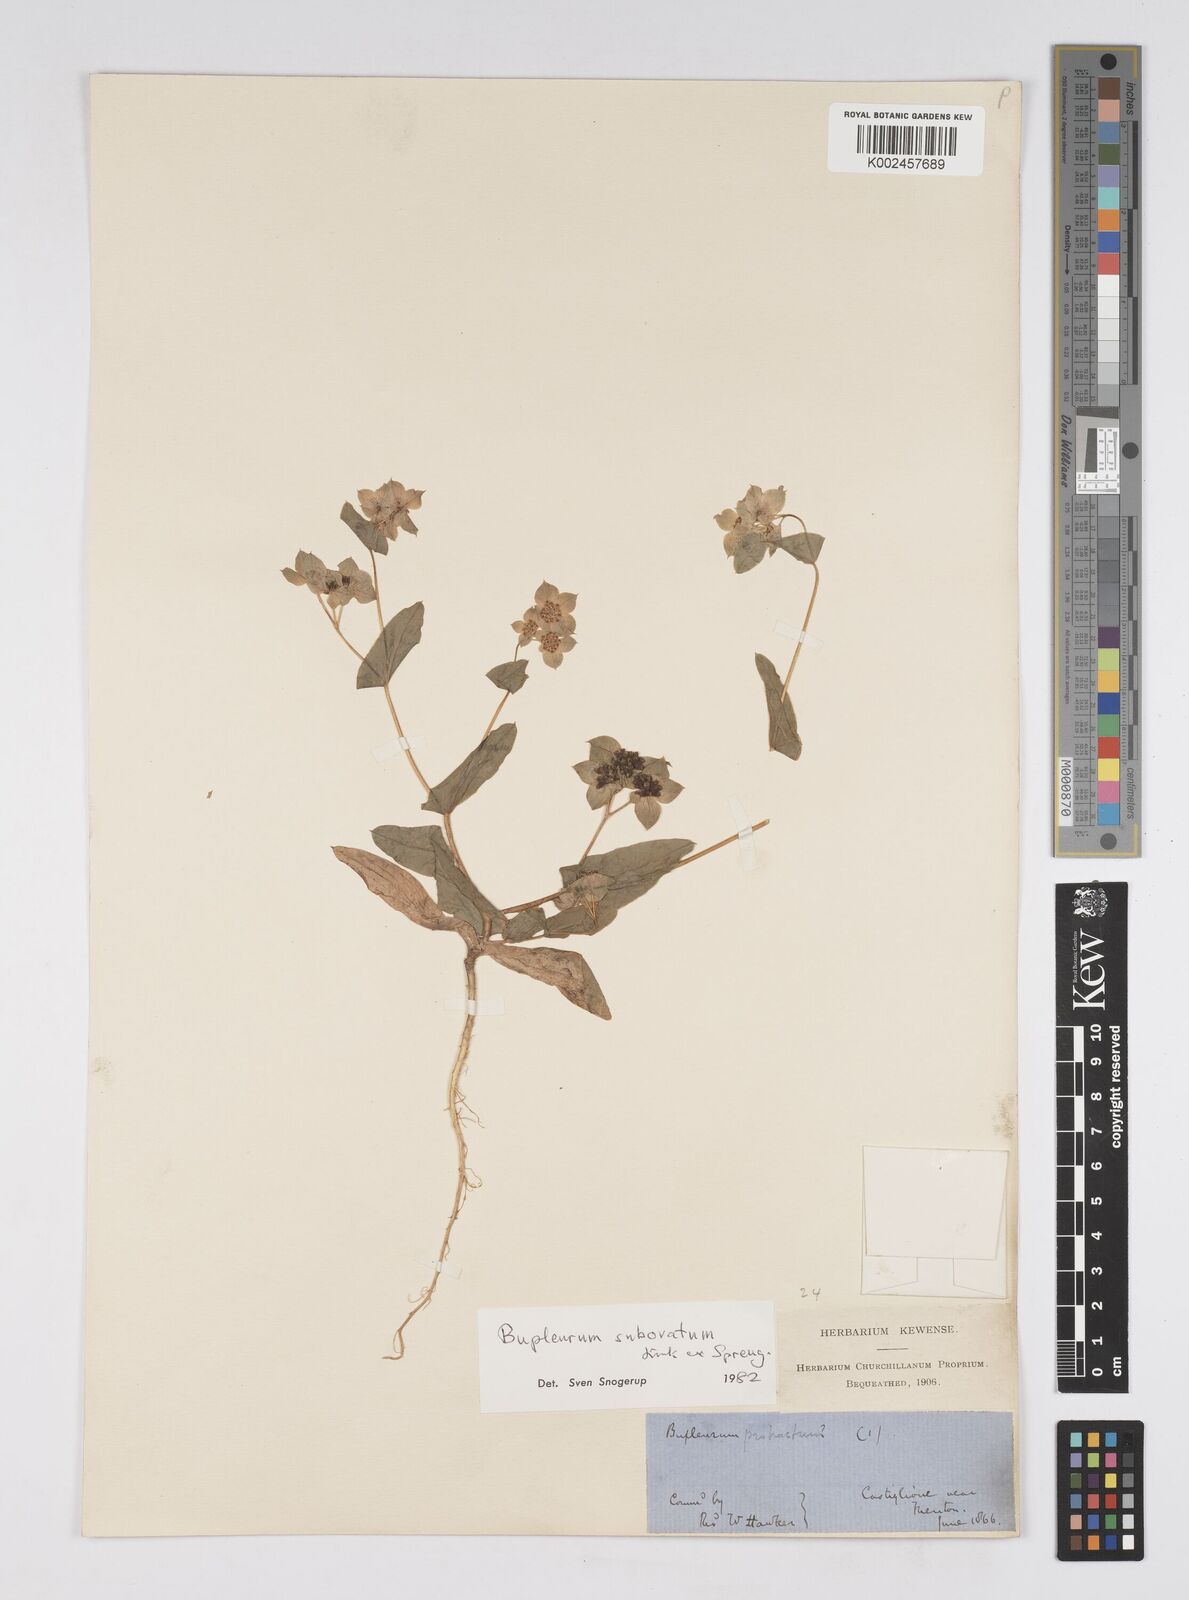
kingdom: Plantae
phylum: Tracheophyta
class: Magnoliopsida
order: Apiales
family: Apiaceae
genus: Bupleurum
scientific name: Bupleurum lancifolium
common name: False thorow-wax
